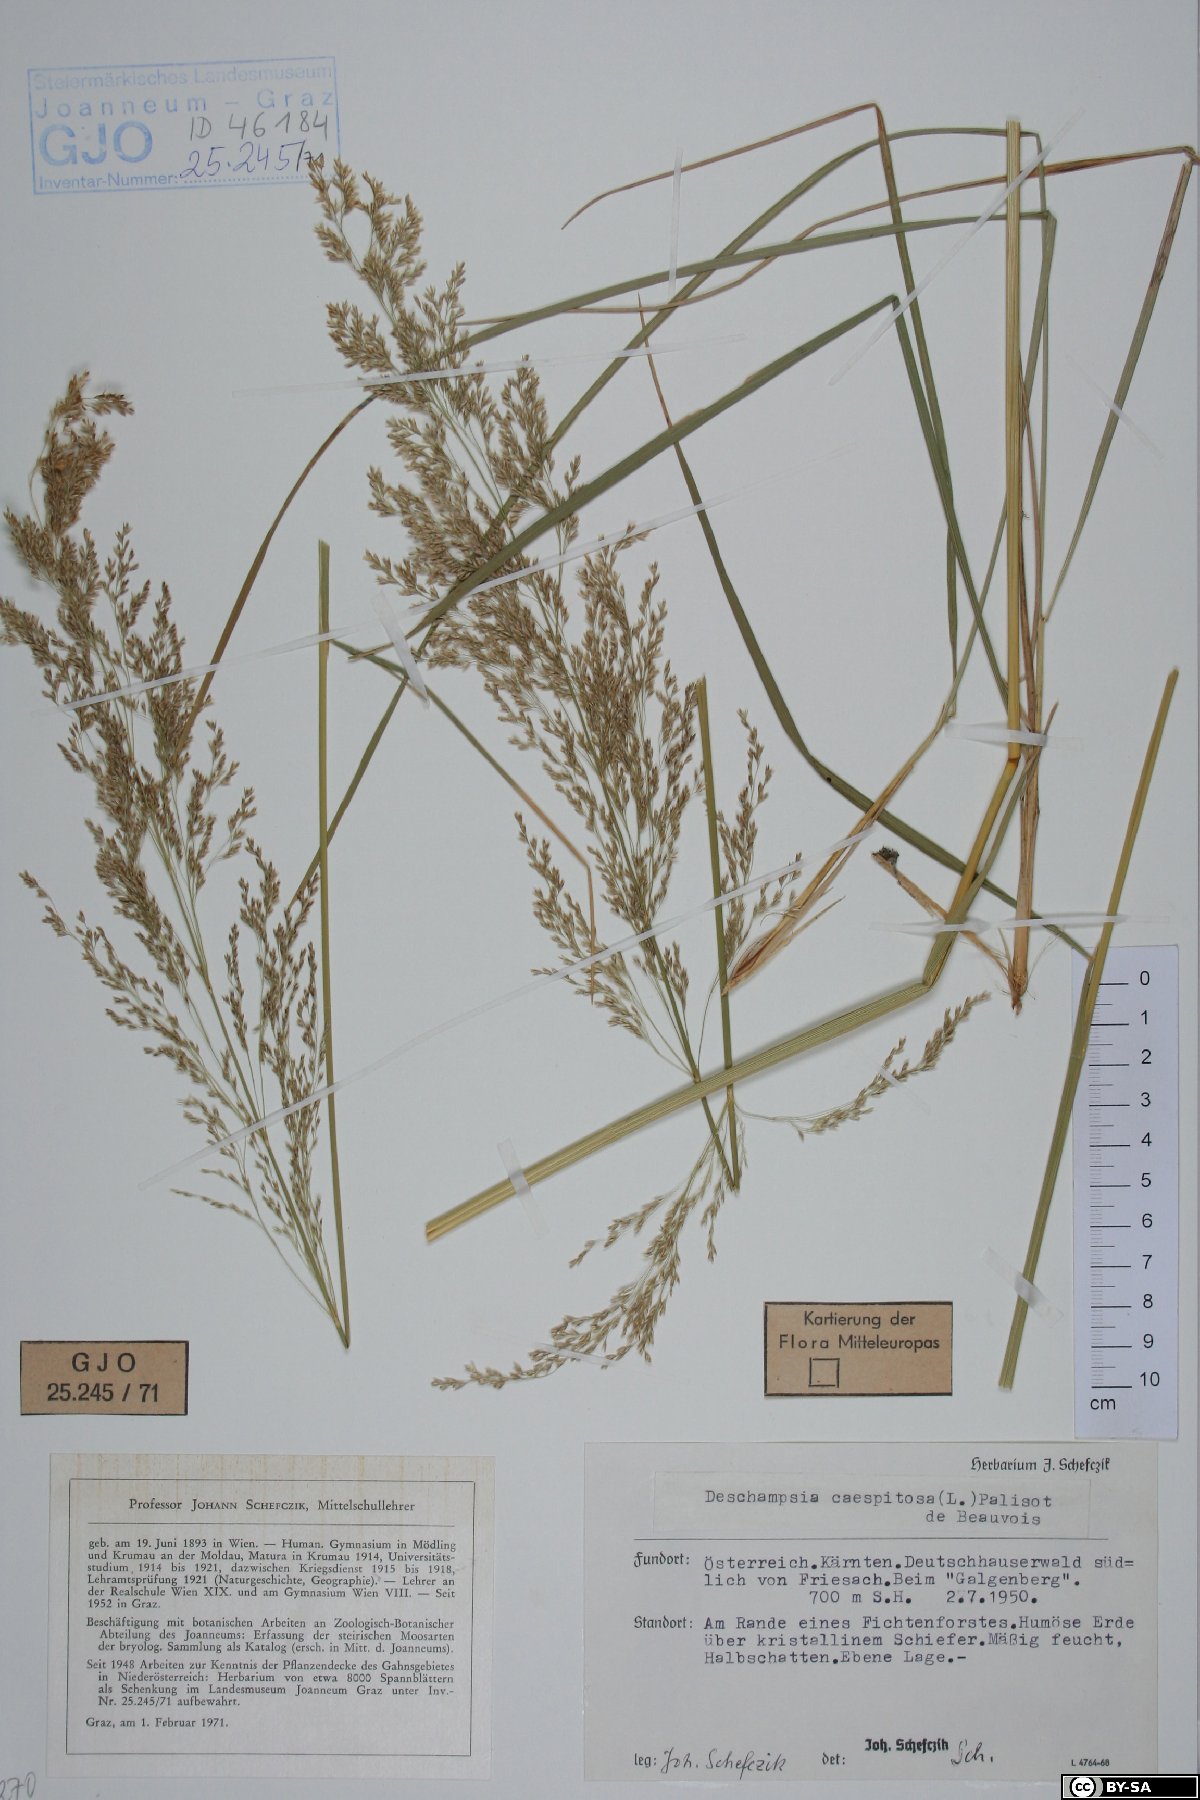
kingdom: Plantae
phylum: Tracheophyta
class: Liliopsida
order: Poales
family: Poaceae
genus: Deschampsia
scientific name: Deschampsia cespitosa
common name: Tufted hair-grass
